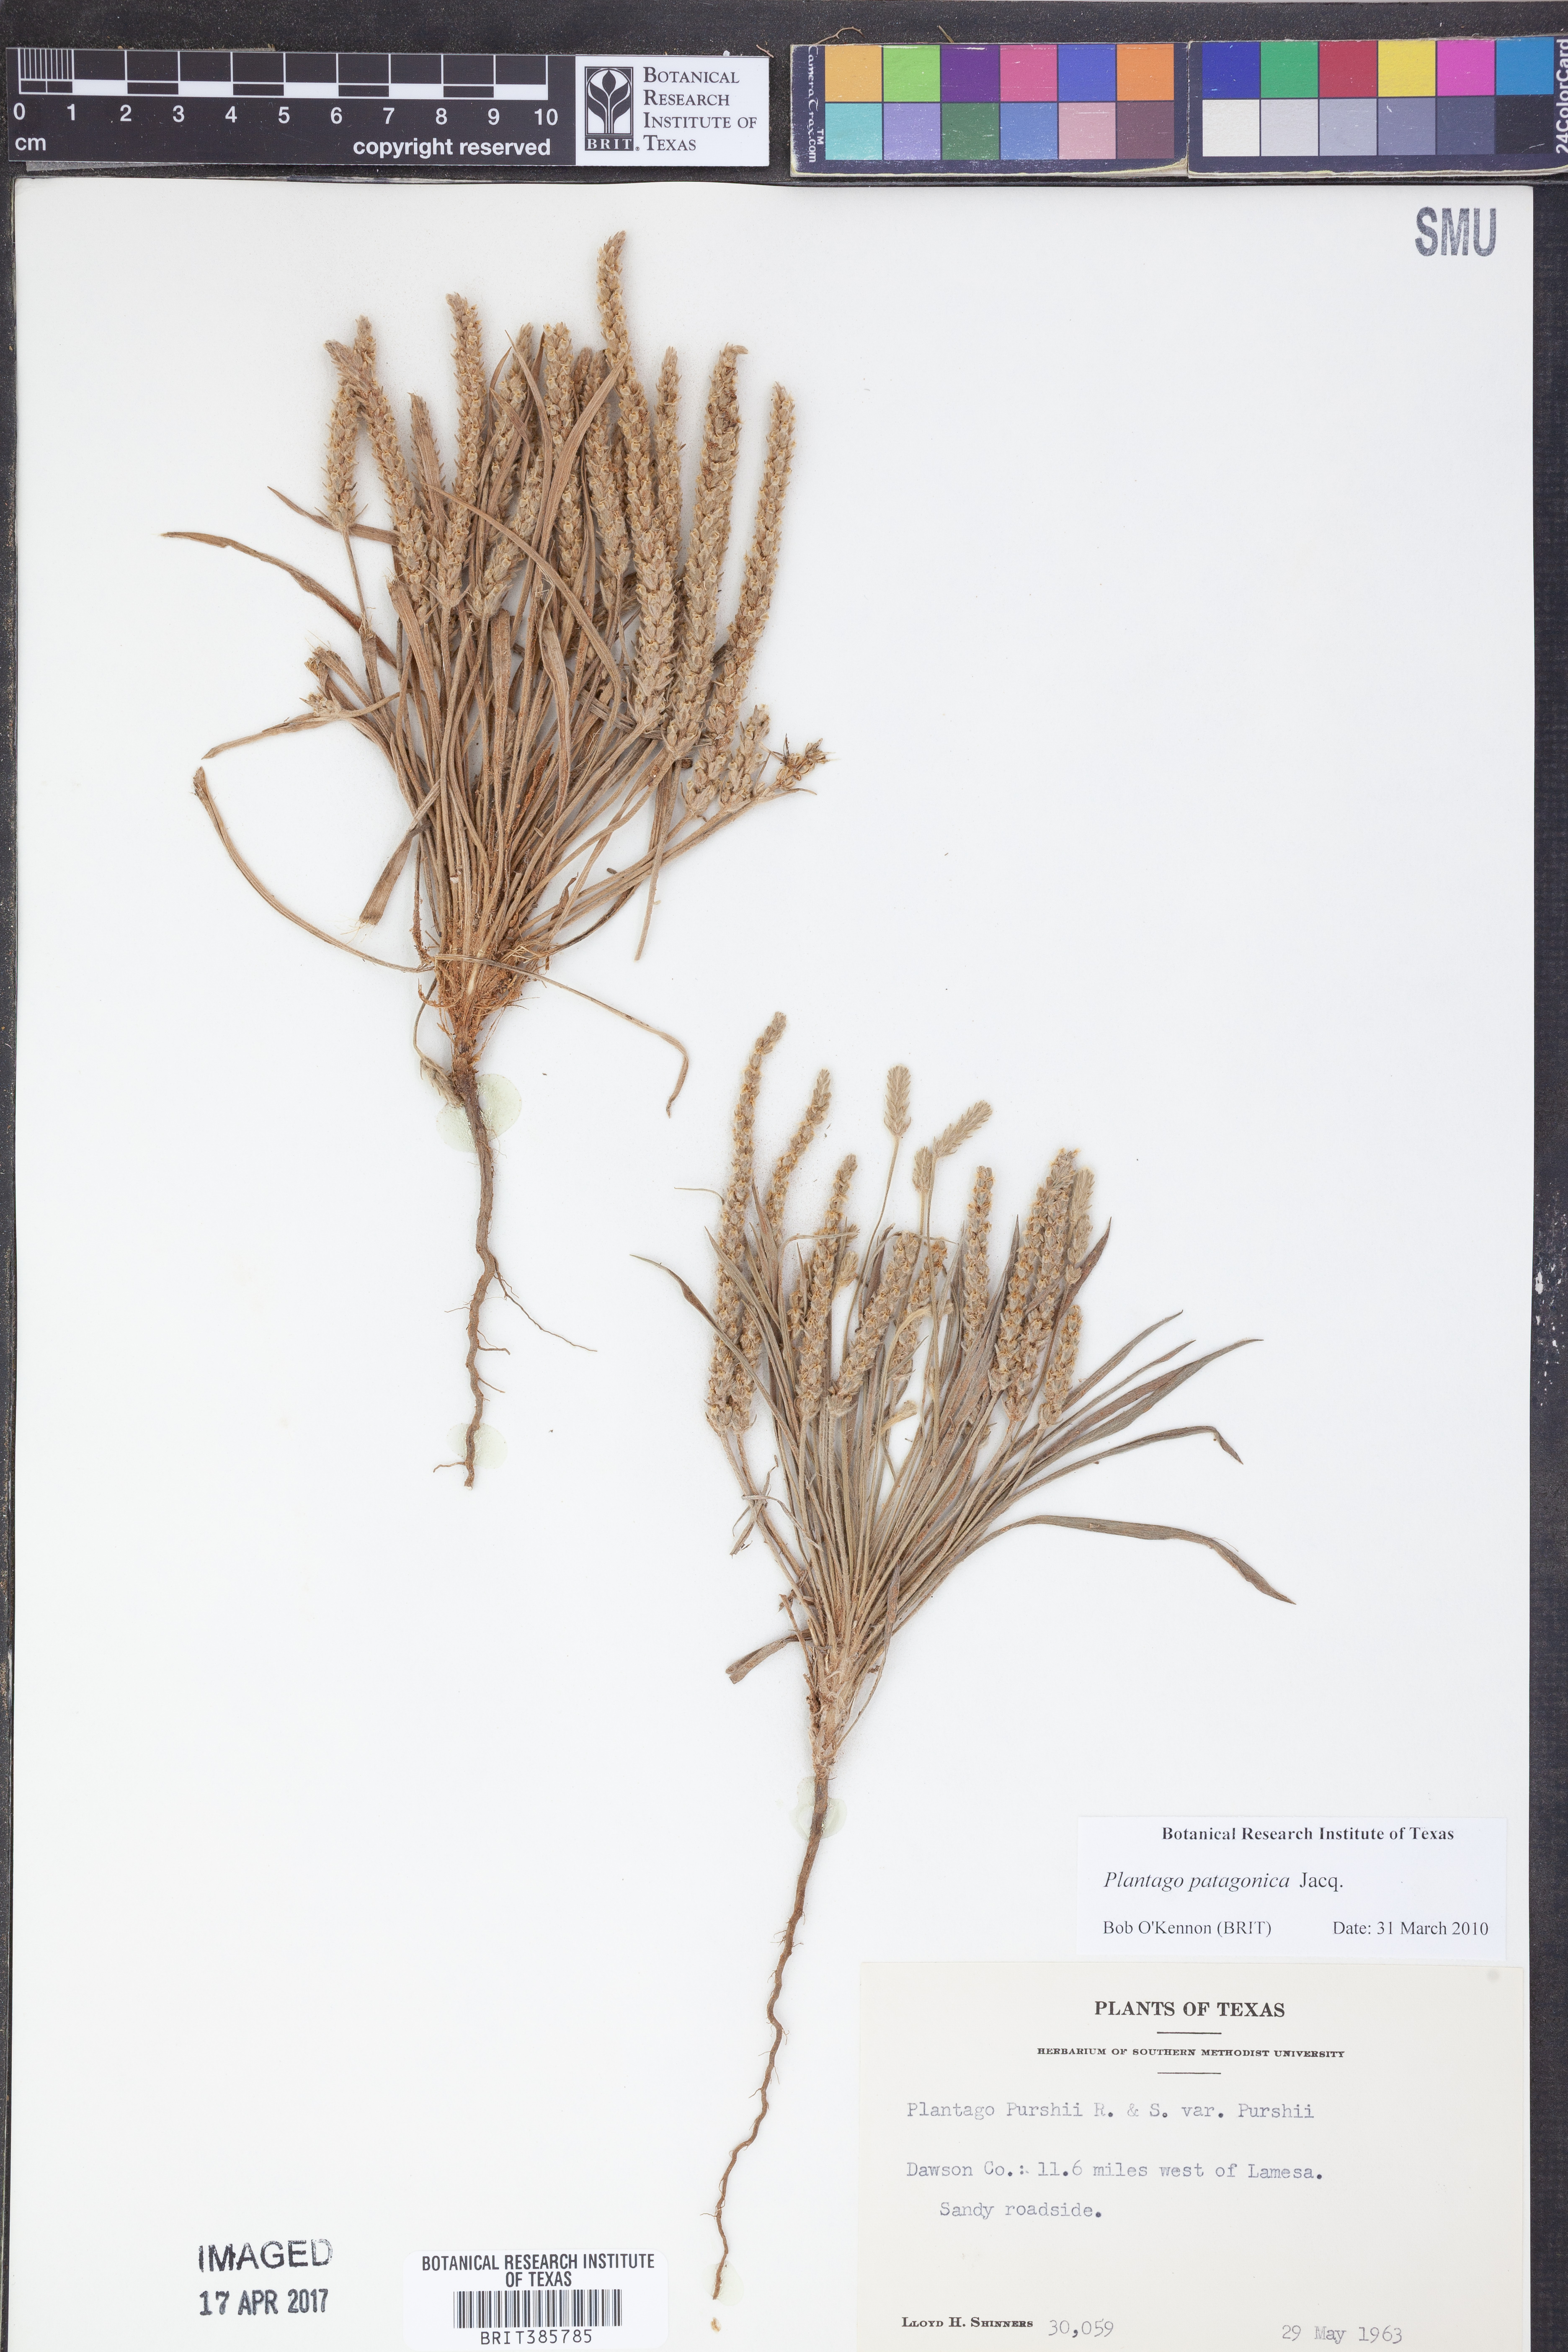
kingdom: Plantae
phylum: Tracheophyta
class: Magnoliopsida
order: Lamiales
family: Plantaginaceae
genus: Plantago
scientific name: Plantago patagonica
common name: Patagonia indian-wheat
